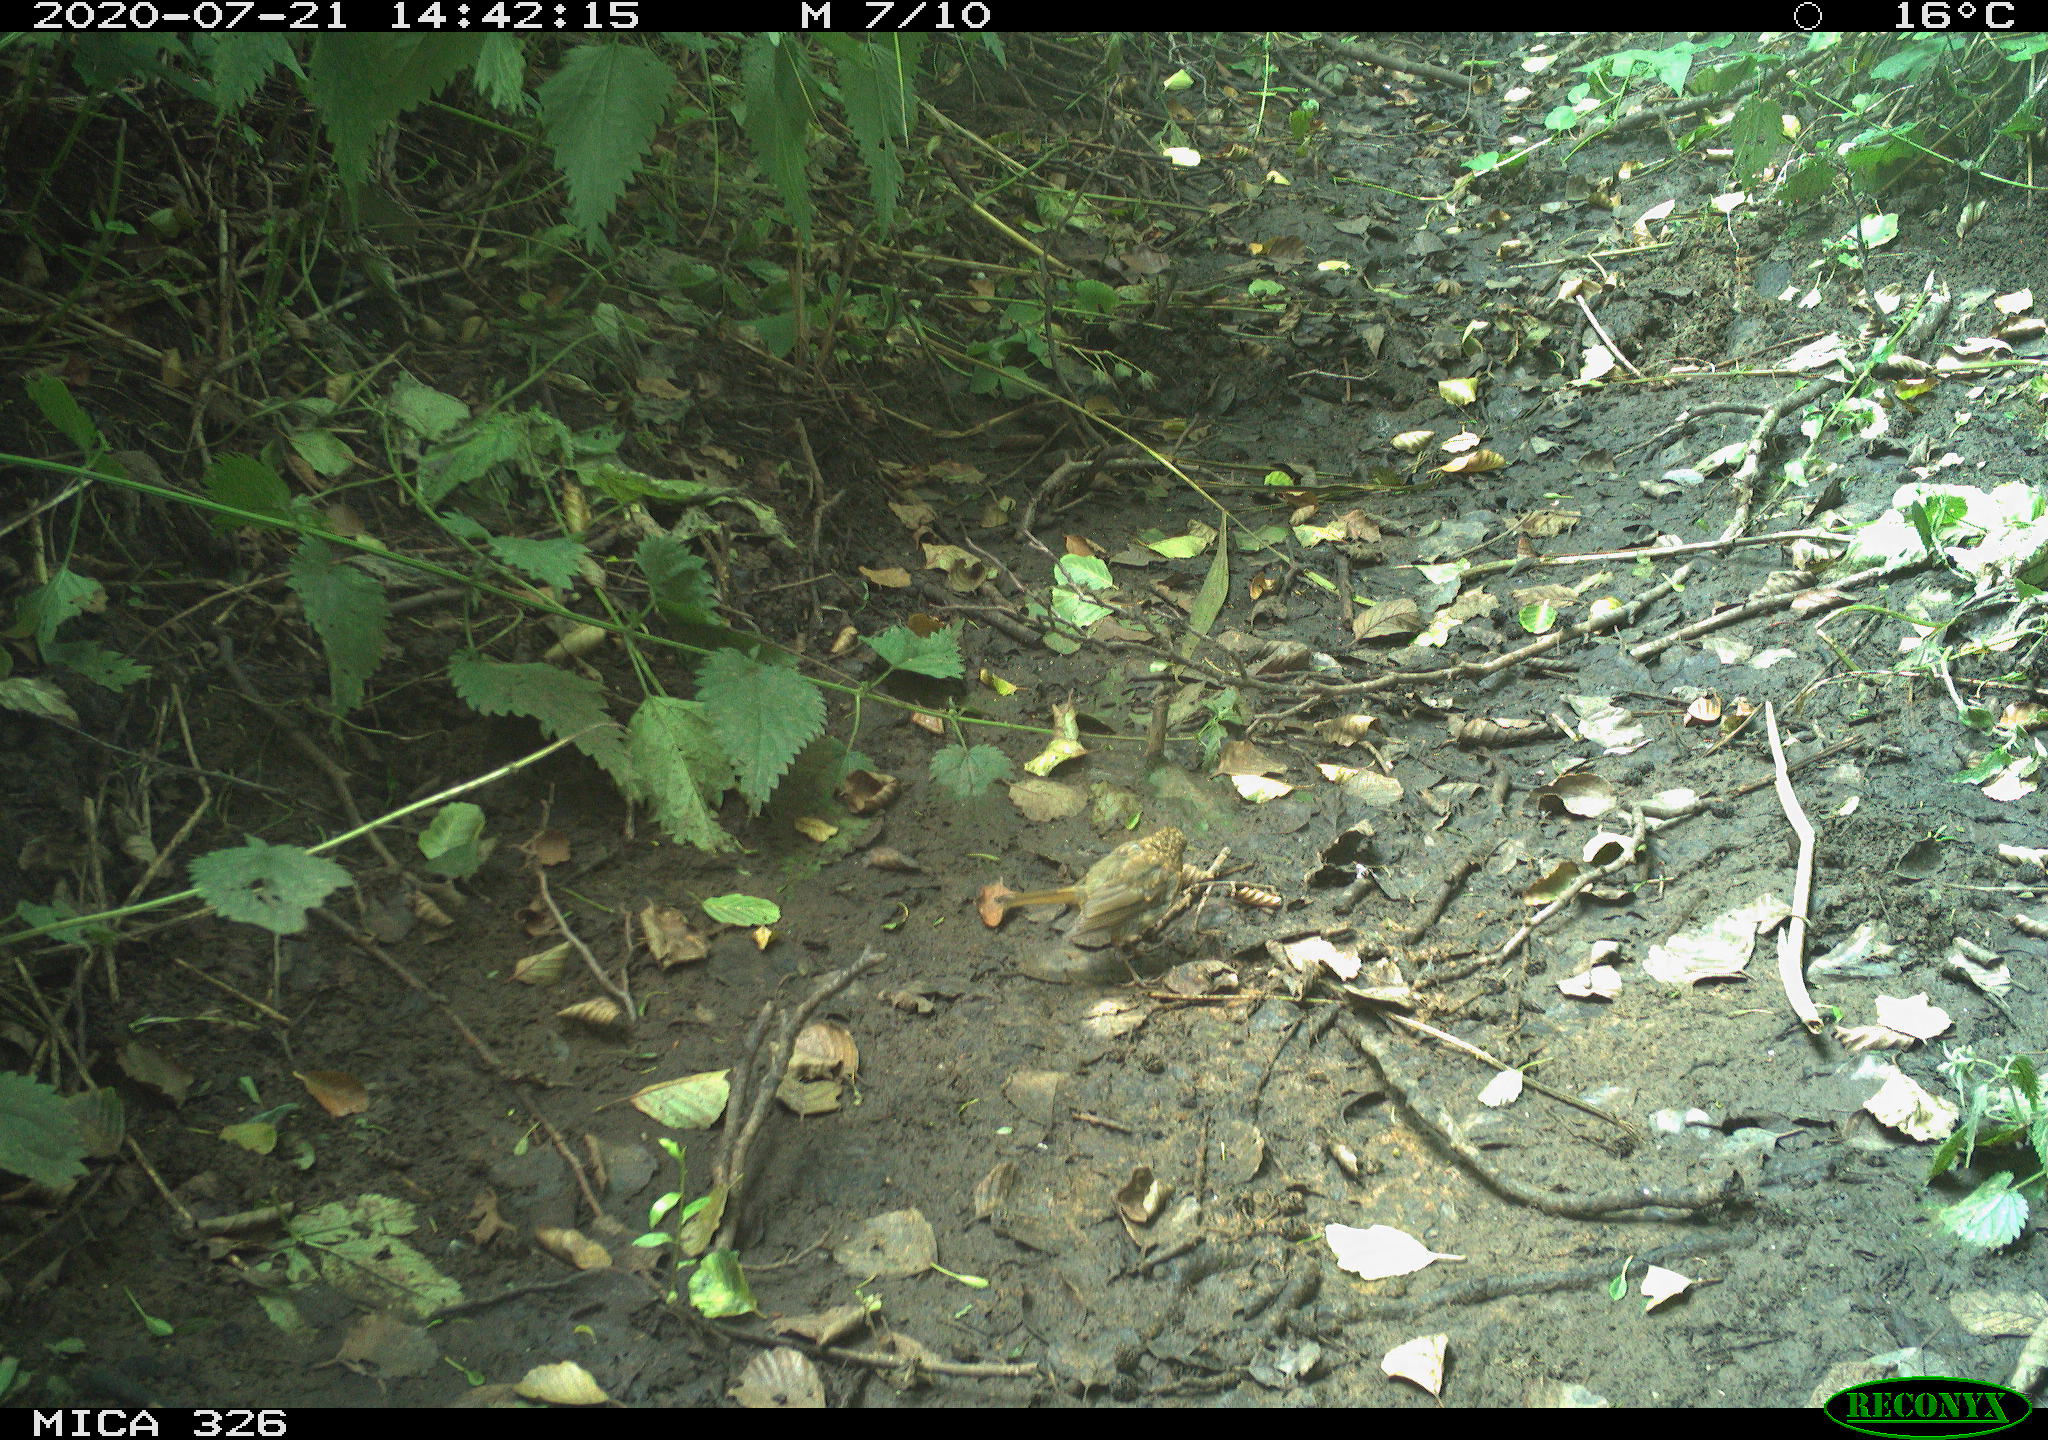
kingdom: Animalia
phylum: Chordata
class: Aves
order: Passeriformes
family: Muscicapidae
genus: Erithacus
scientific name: Erithacus rubecula
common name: European robin
